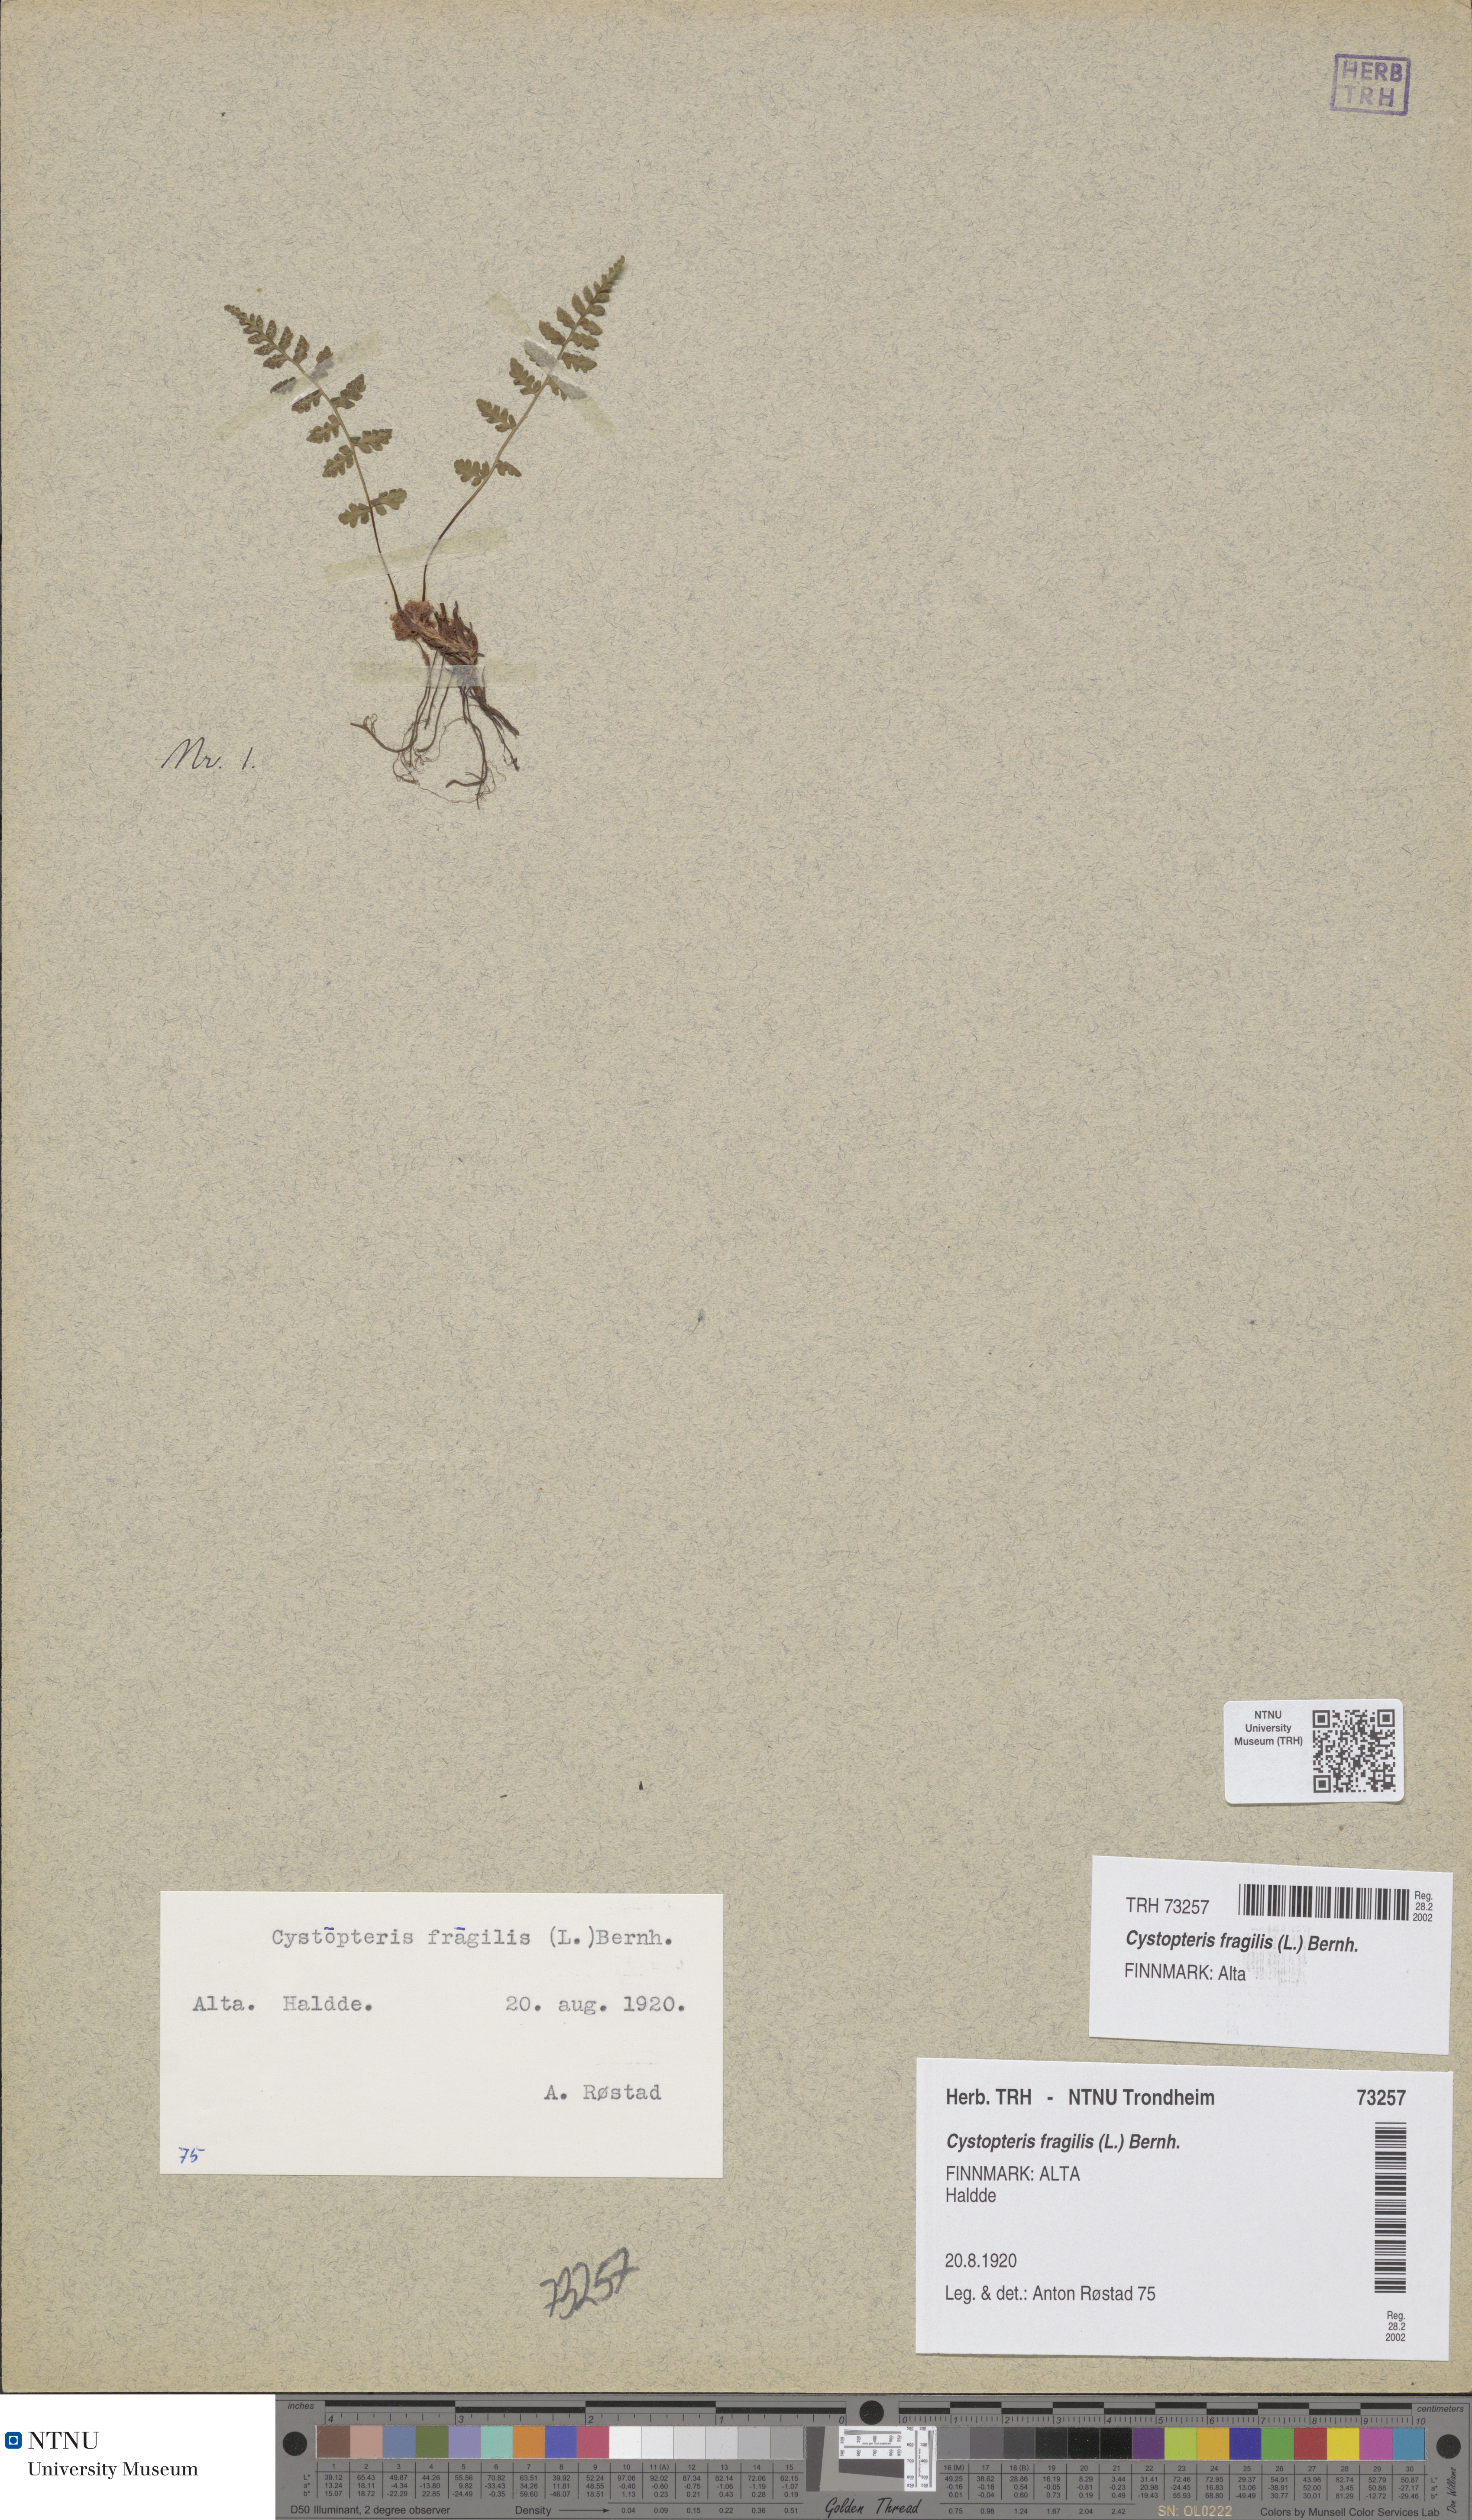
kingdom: Plantae
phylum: Tracheophyta
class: Polypodiopsida
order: Polypodiales
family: Cystopteridaceae
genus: Cystopteris
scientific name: Cystopteris fragilis
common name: Brittle bladder fern
